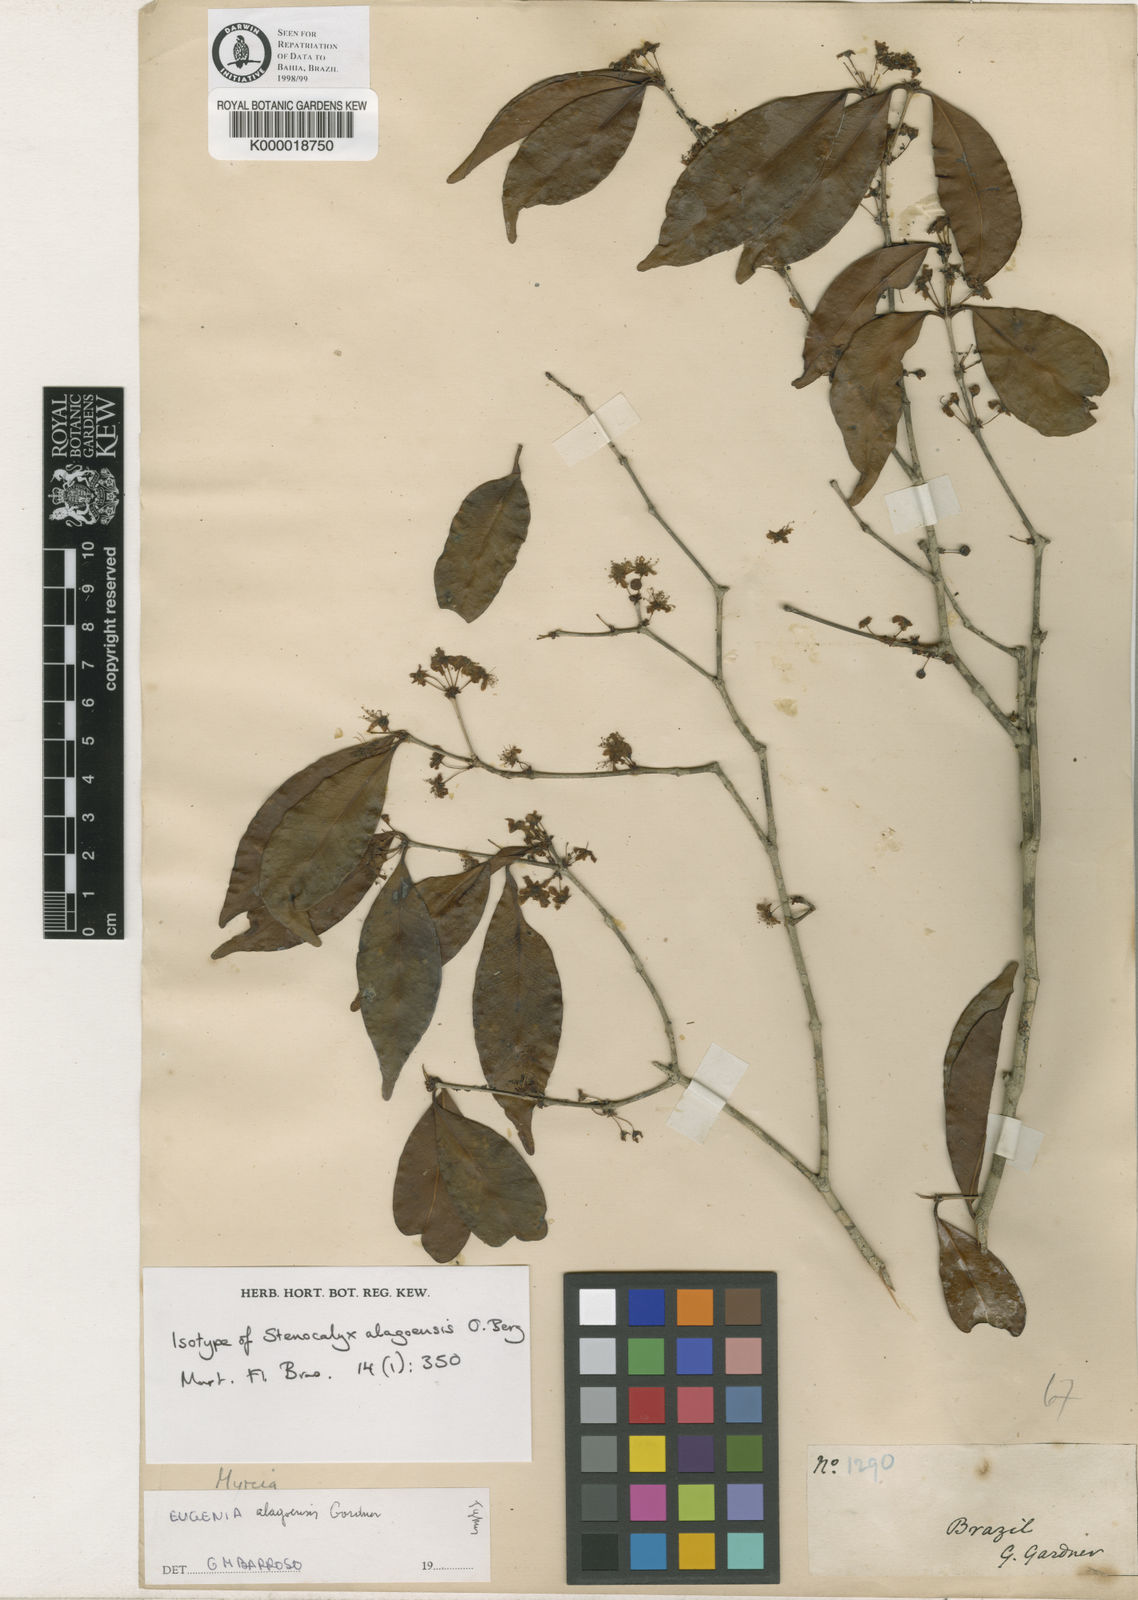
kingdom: Plantae
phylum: Tracheophyta
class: Magnoliopsida
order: Myrtales
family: Myrtaceae
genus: Eugenia
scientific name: Eugenia alagoensis
